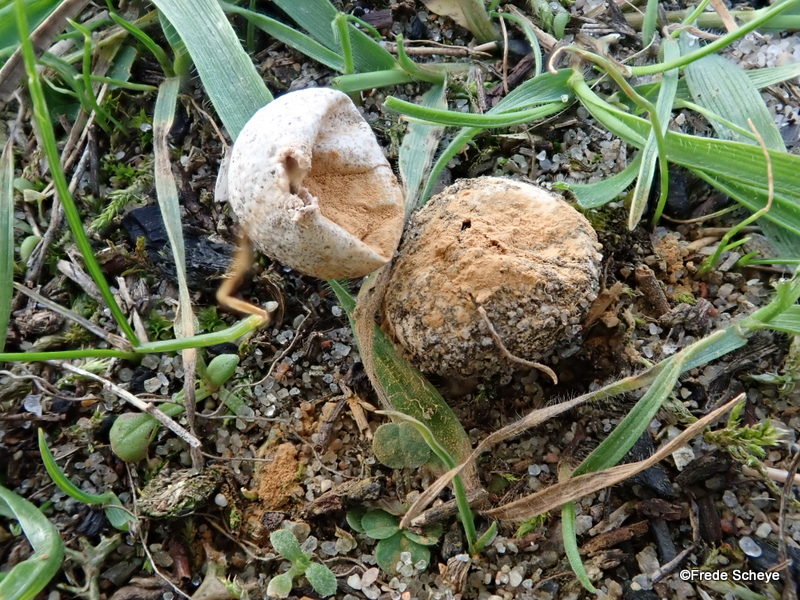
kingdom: Fungi
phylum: Basidiomycota
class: Agaricomycetes
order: Agaricales
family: Agaricaceae
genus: Tulostoma
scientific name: Tulostoma fimbriatum
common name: frynset stilkbovist
